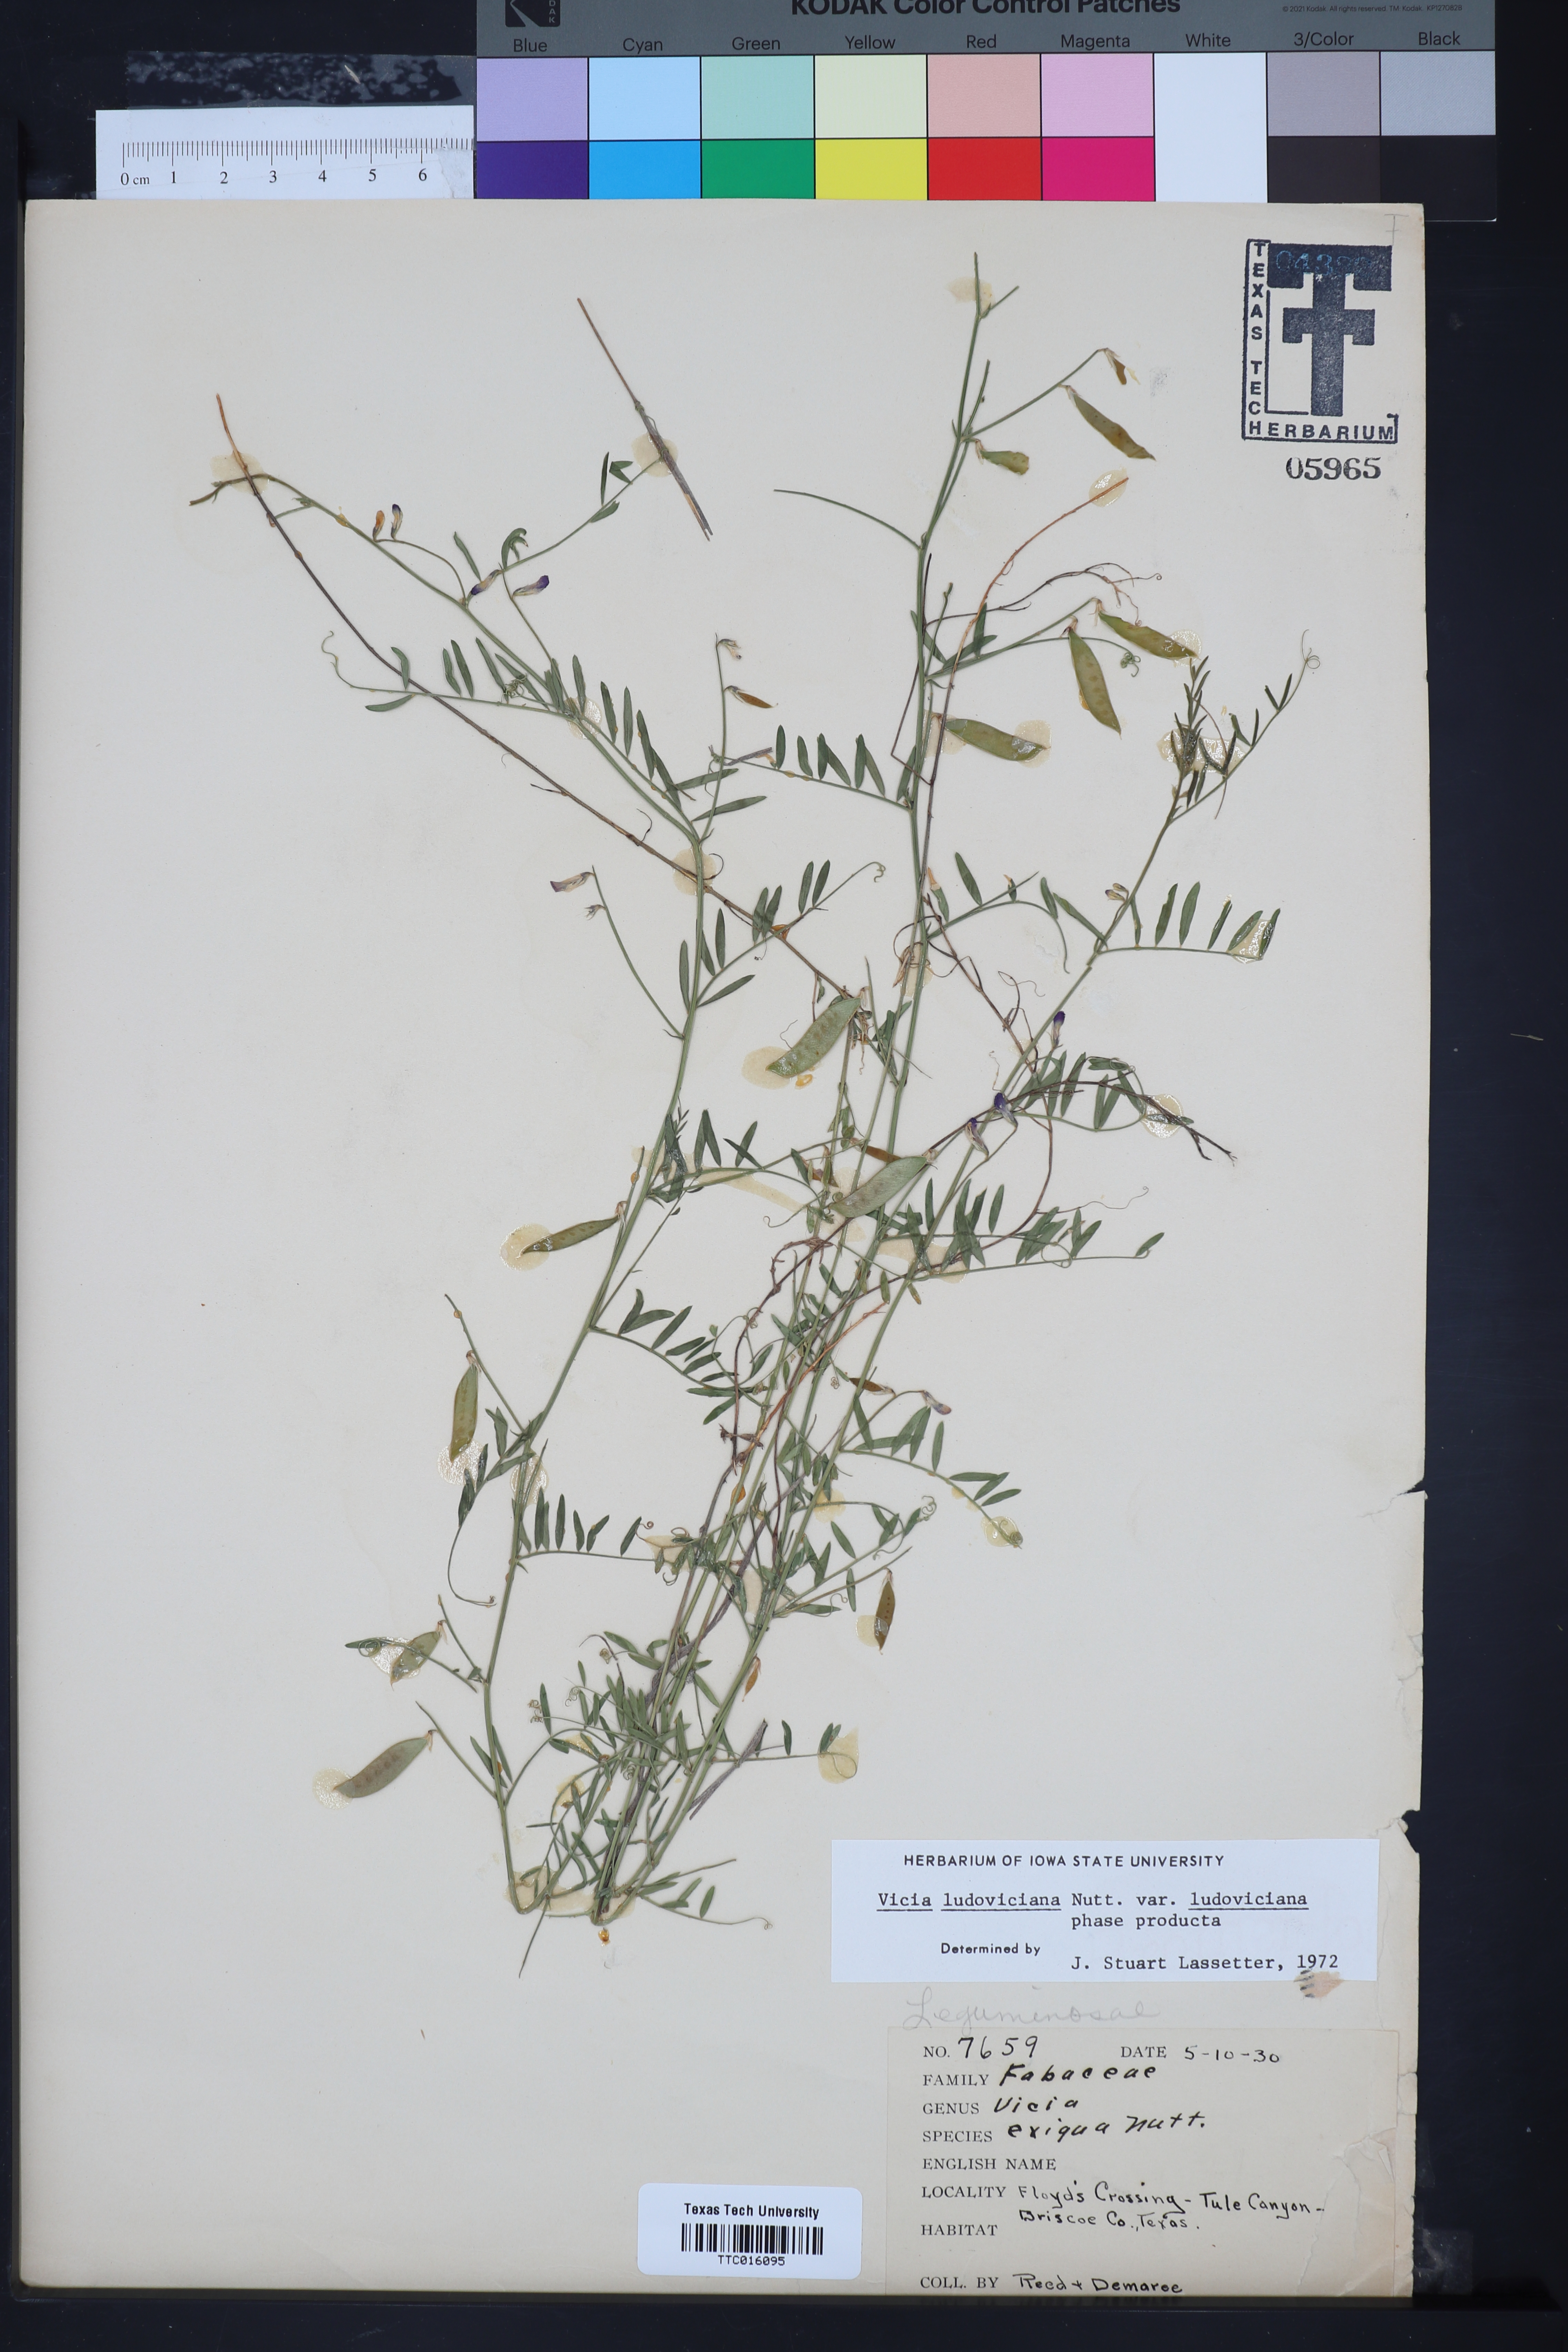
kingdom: Plantae
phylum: Tracheophyta
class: Magnoliopsida
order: Fabales
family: Fabaceae
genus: Vicia
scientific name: Vicia ludoviciana
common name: Louisiana vetch
